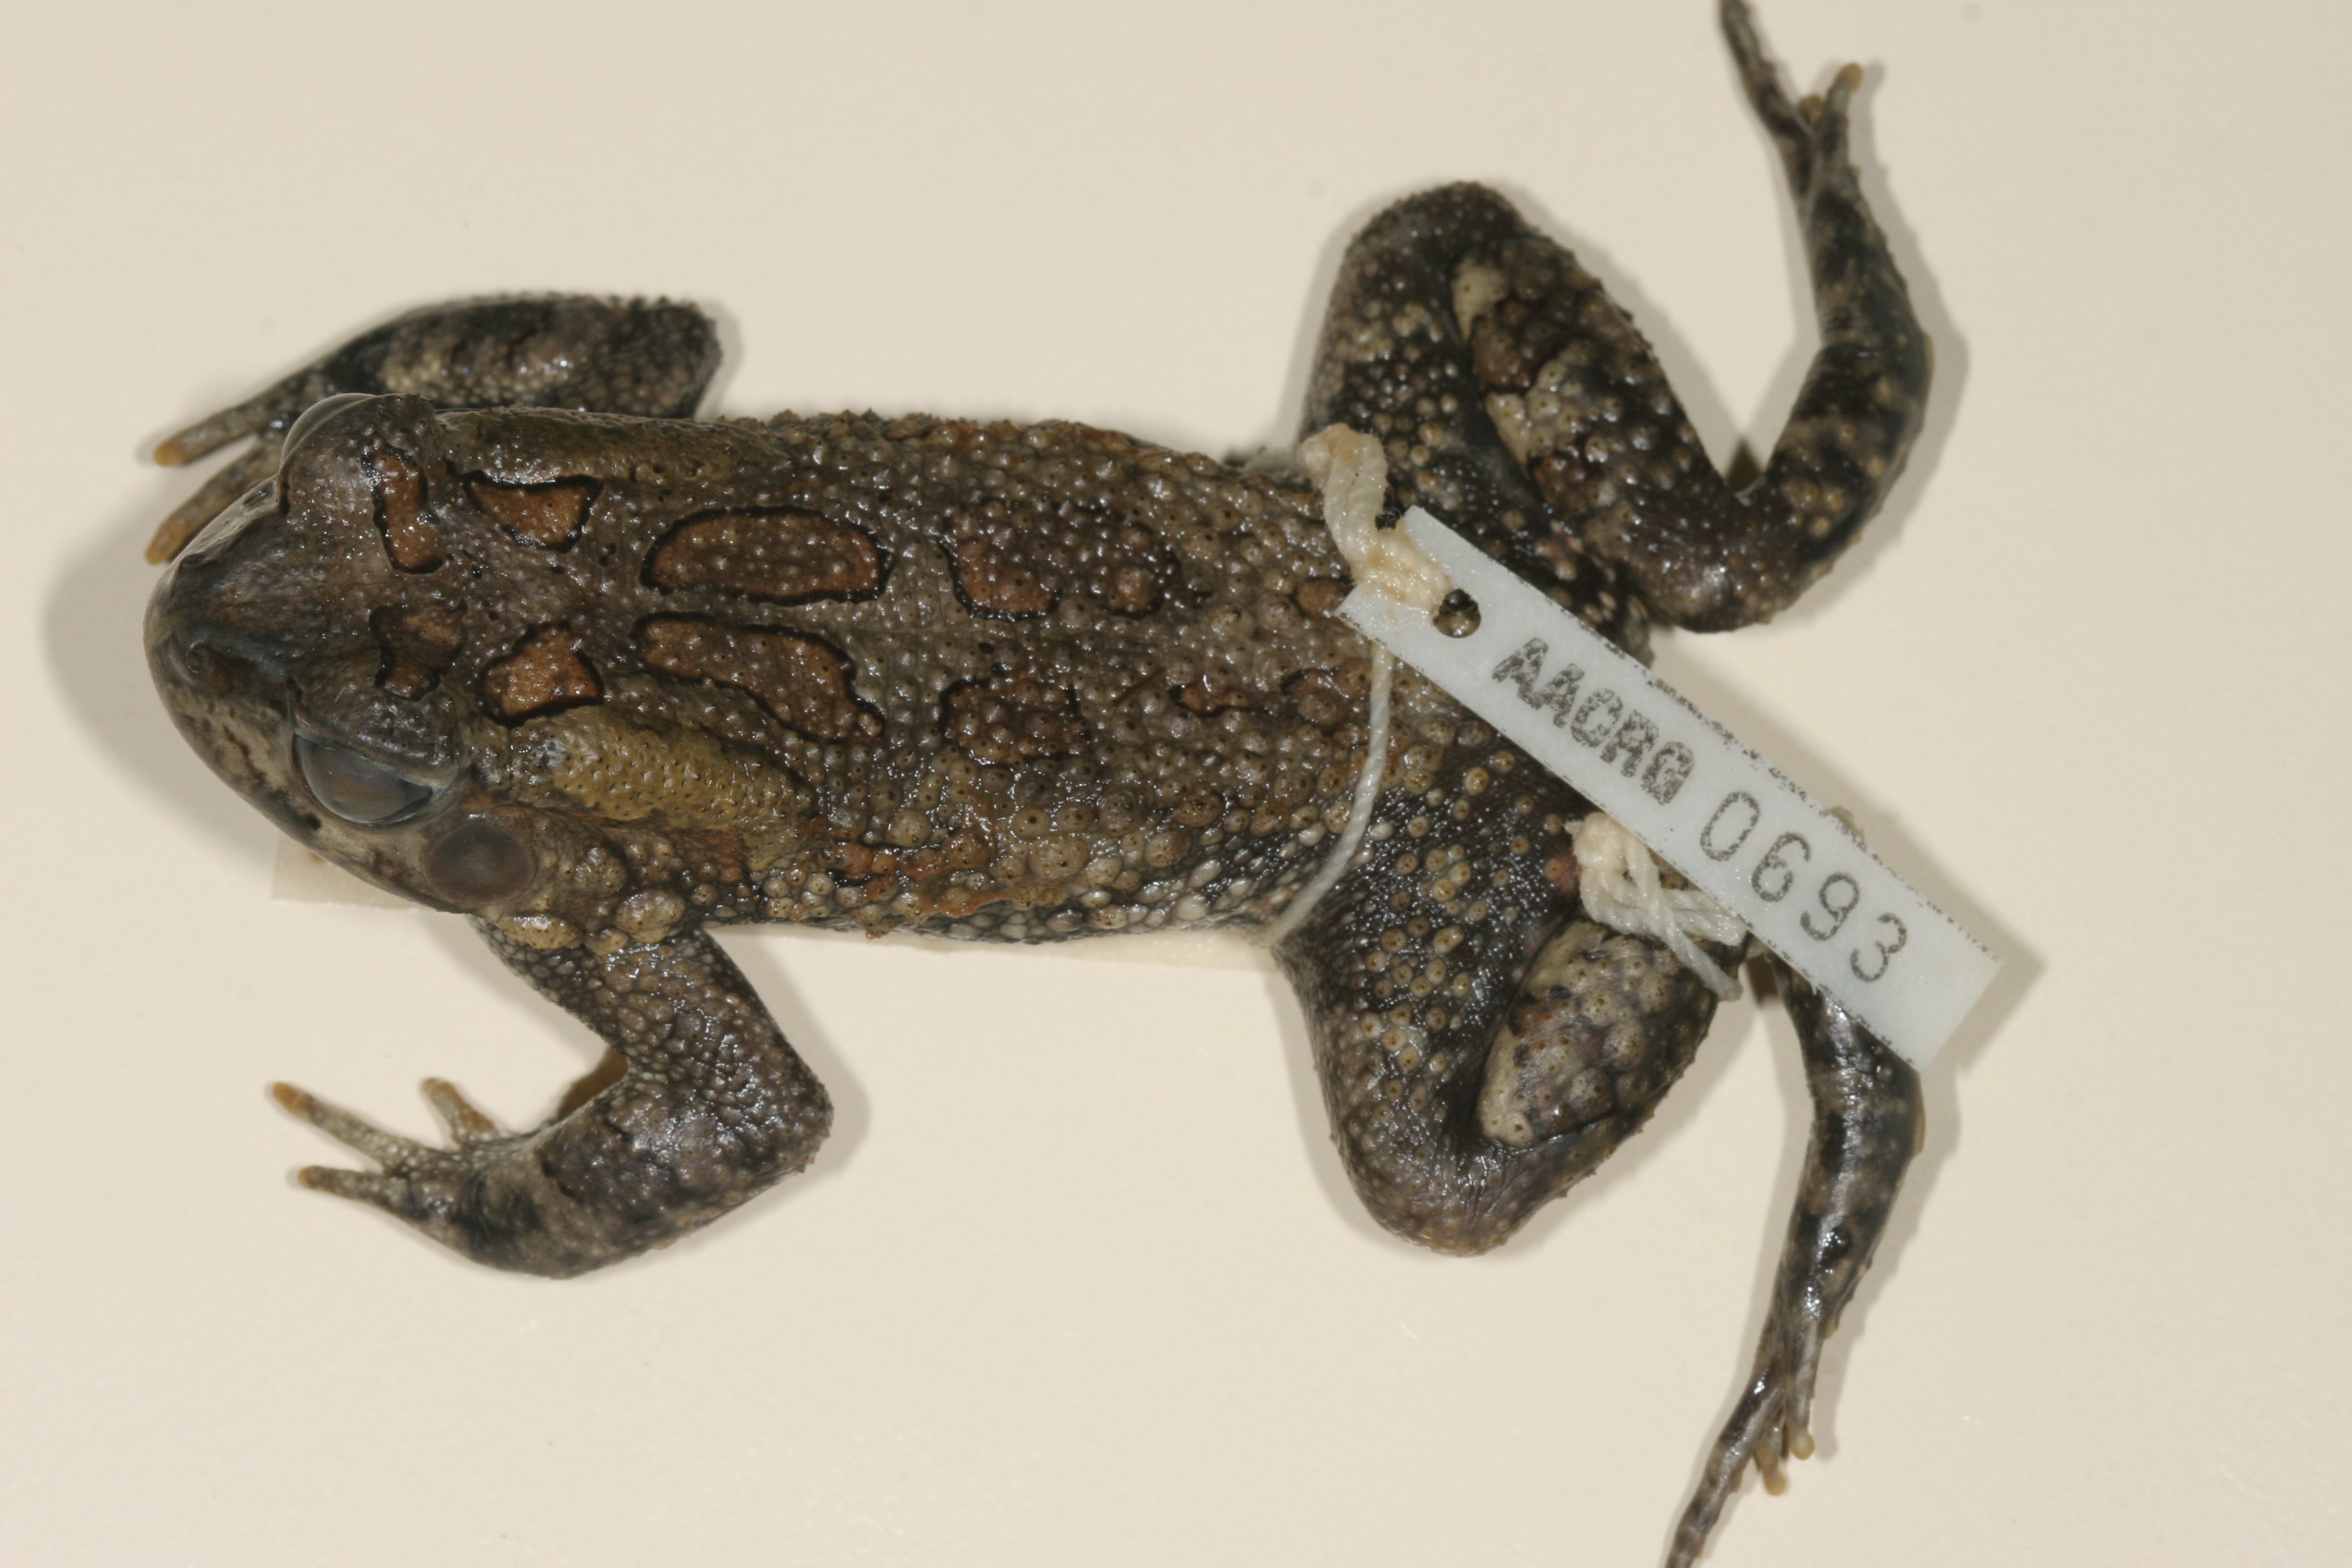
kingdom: Animalia
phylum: Chordata
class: Amphibia
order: Anura
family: Bufonidae
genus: Sclerophrys
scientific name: Sclerophrys garmani
